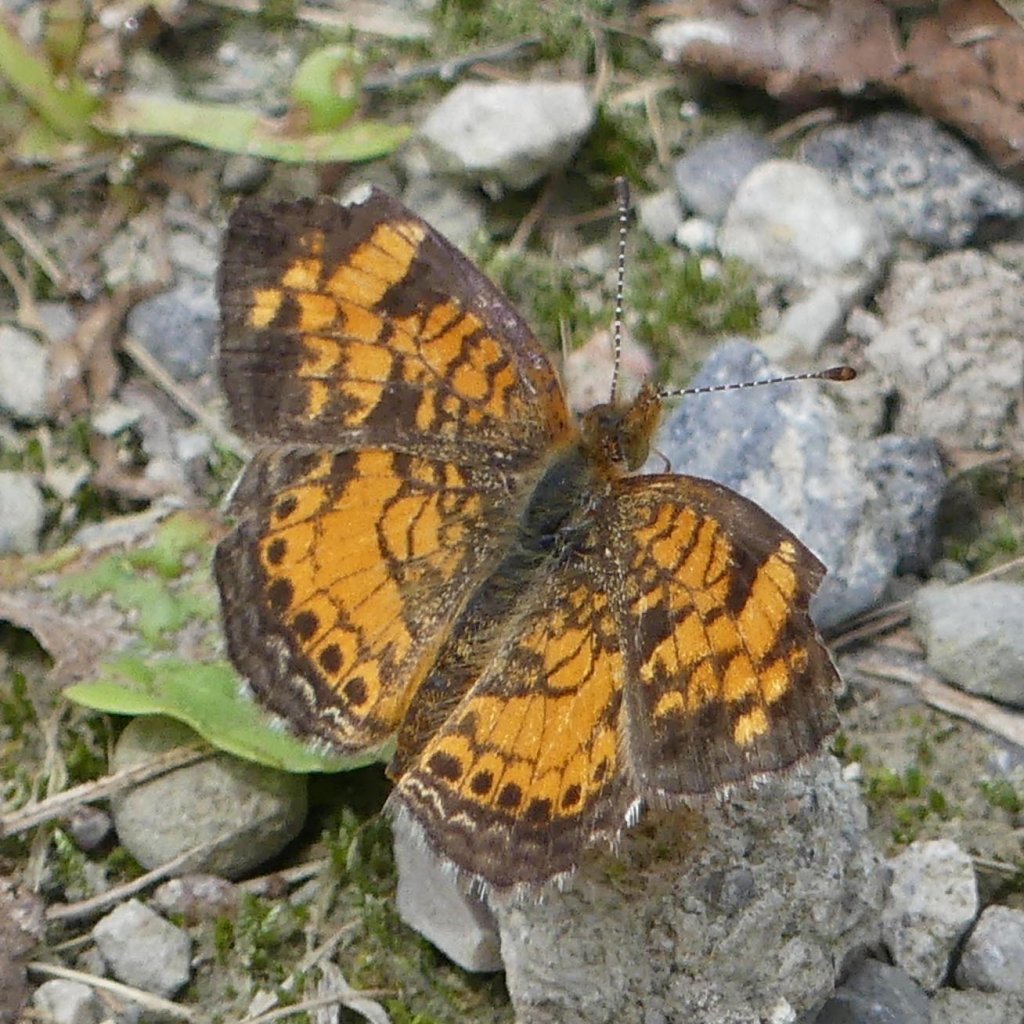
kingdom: Animalia
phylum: Arthropoda
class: Insecta
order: Lepidoptera
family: Nymphalidae
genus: Phyciodes
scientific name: Phyciodes tharos
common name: Pearl Crescent
